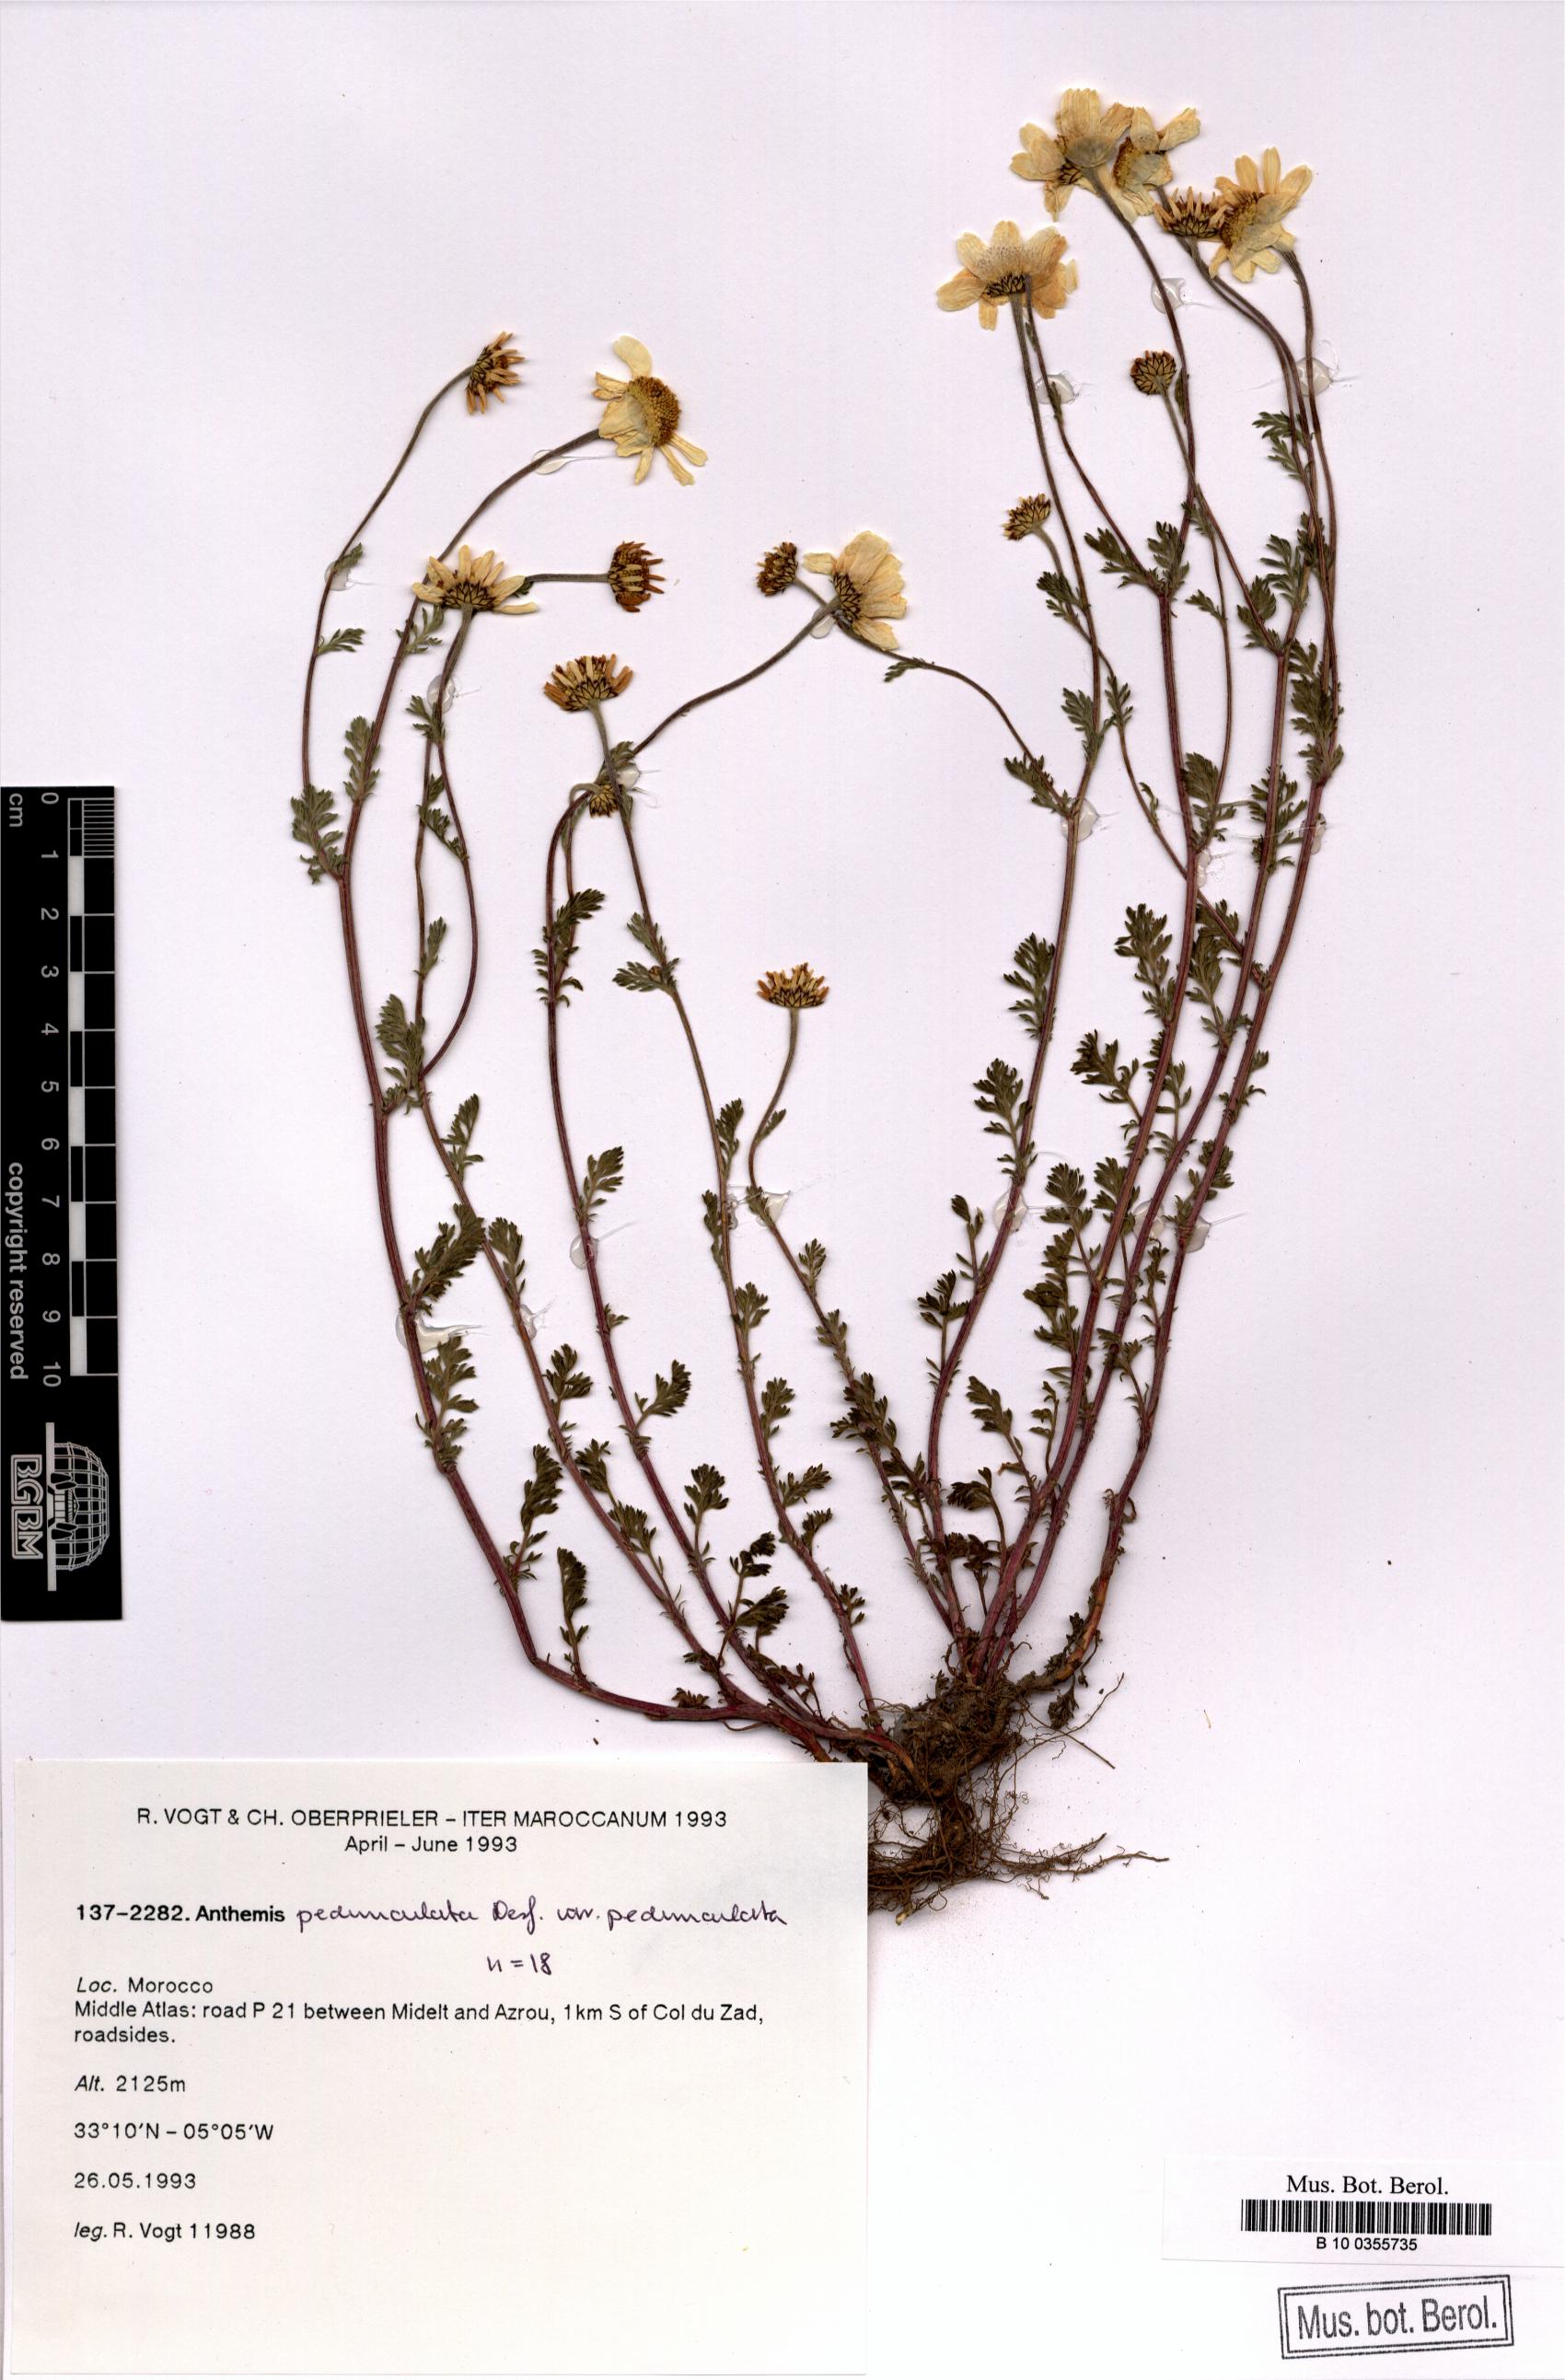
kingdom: Plantae
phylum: Tracheophyta
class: Magnoliopsida
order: Asterales
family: Asteraceae
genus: Anthemis
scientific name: Anthemis pedunculata
